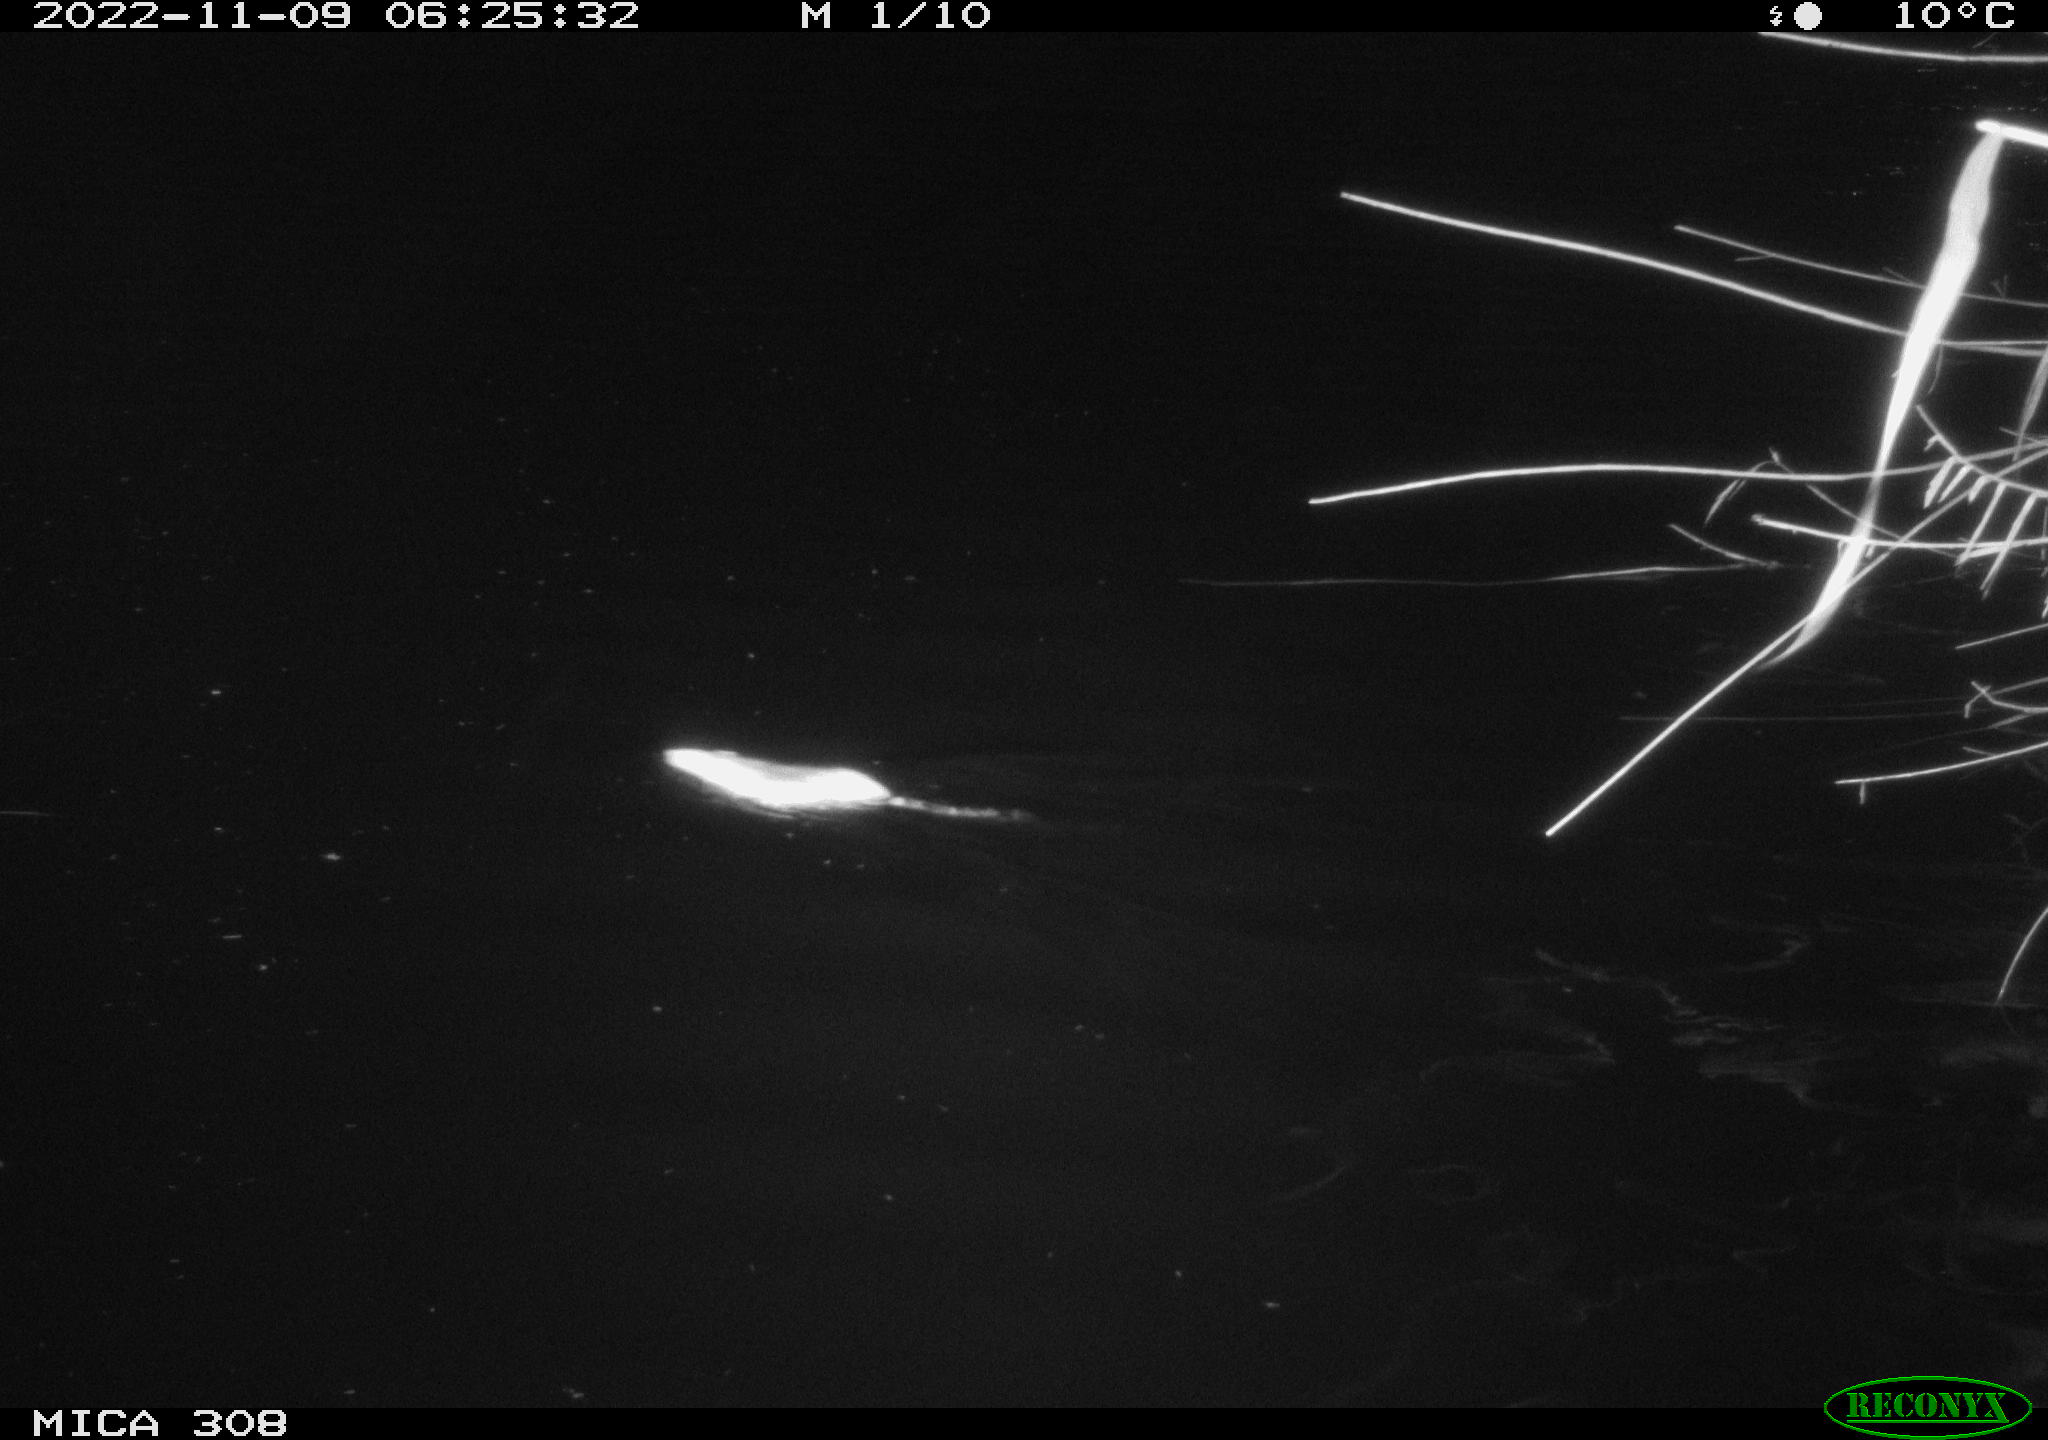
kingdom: Animalia
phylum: Chordata
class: Mammalia
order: Rodentia
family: Muridae
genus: Rattus
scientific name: Rattus norvegicus
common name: Brown rat
